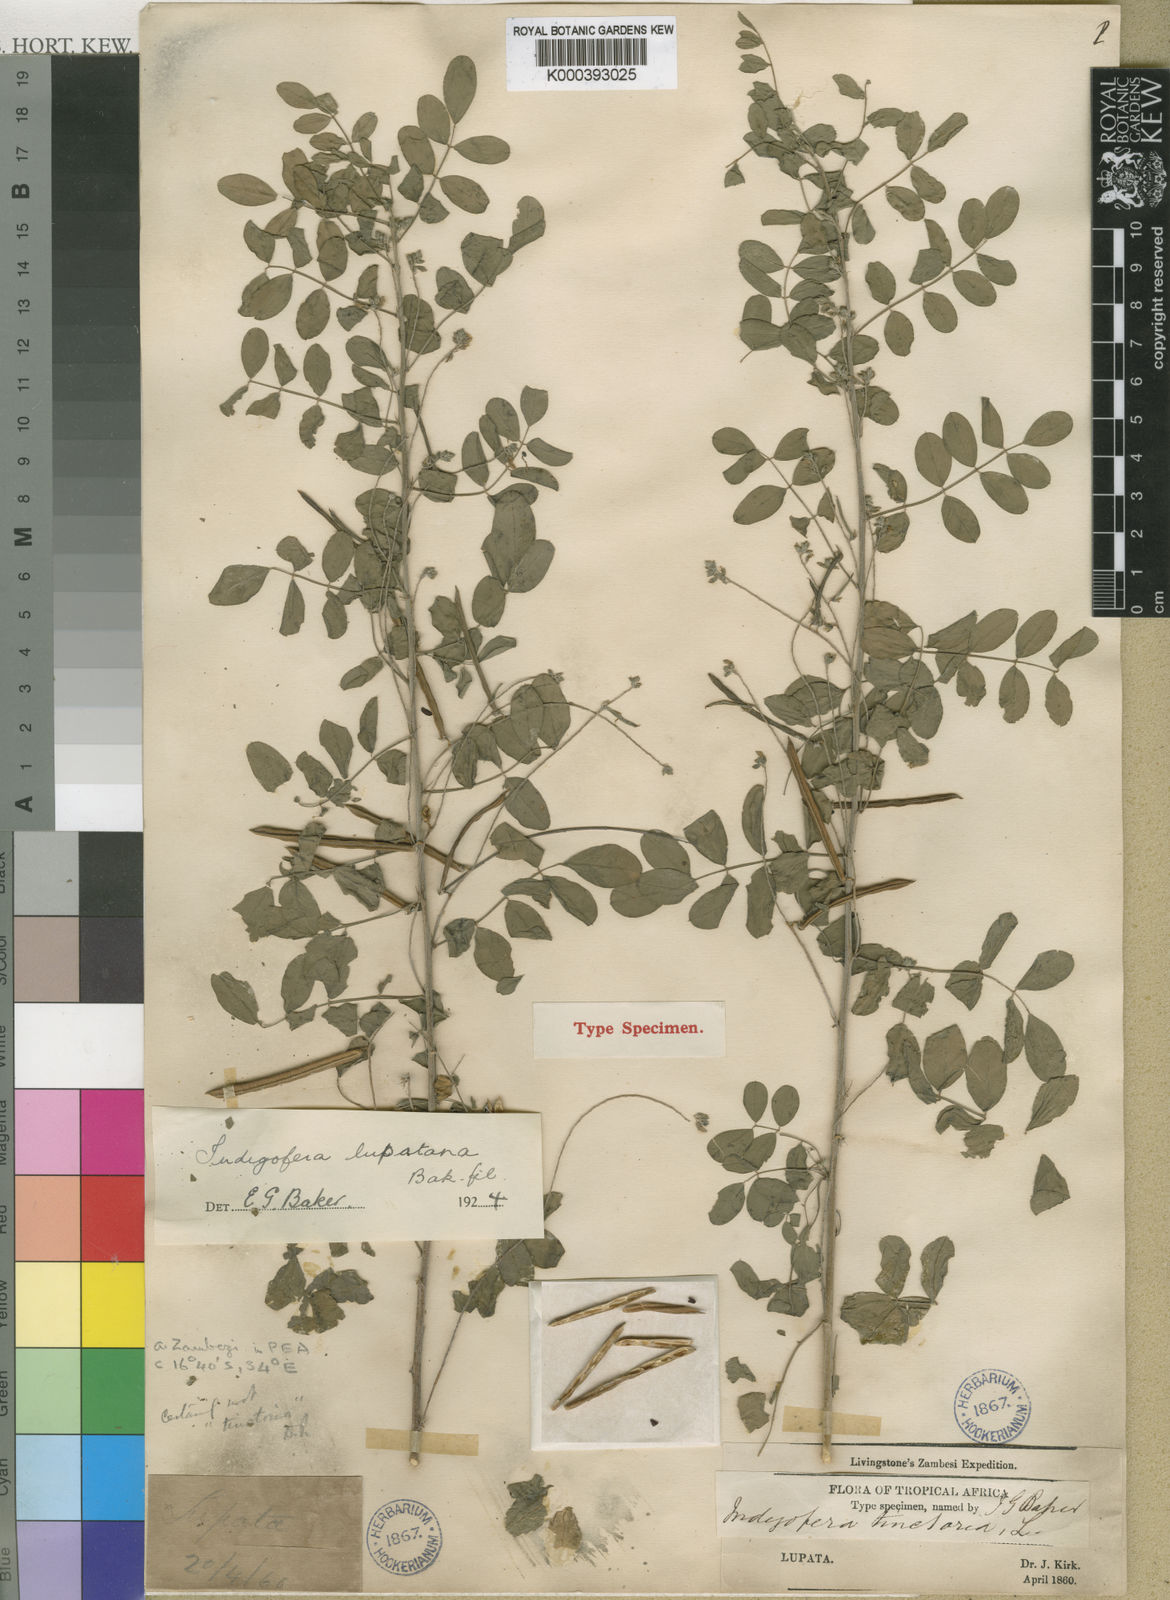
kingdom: Plantae
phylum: Tracheophyta
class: Magnoliopsida
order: Fabales
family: Fabaceae
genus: Indigofera
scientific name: Indigofera lupatana
